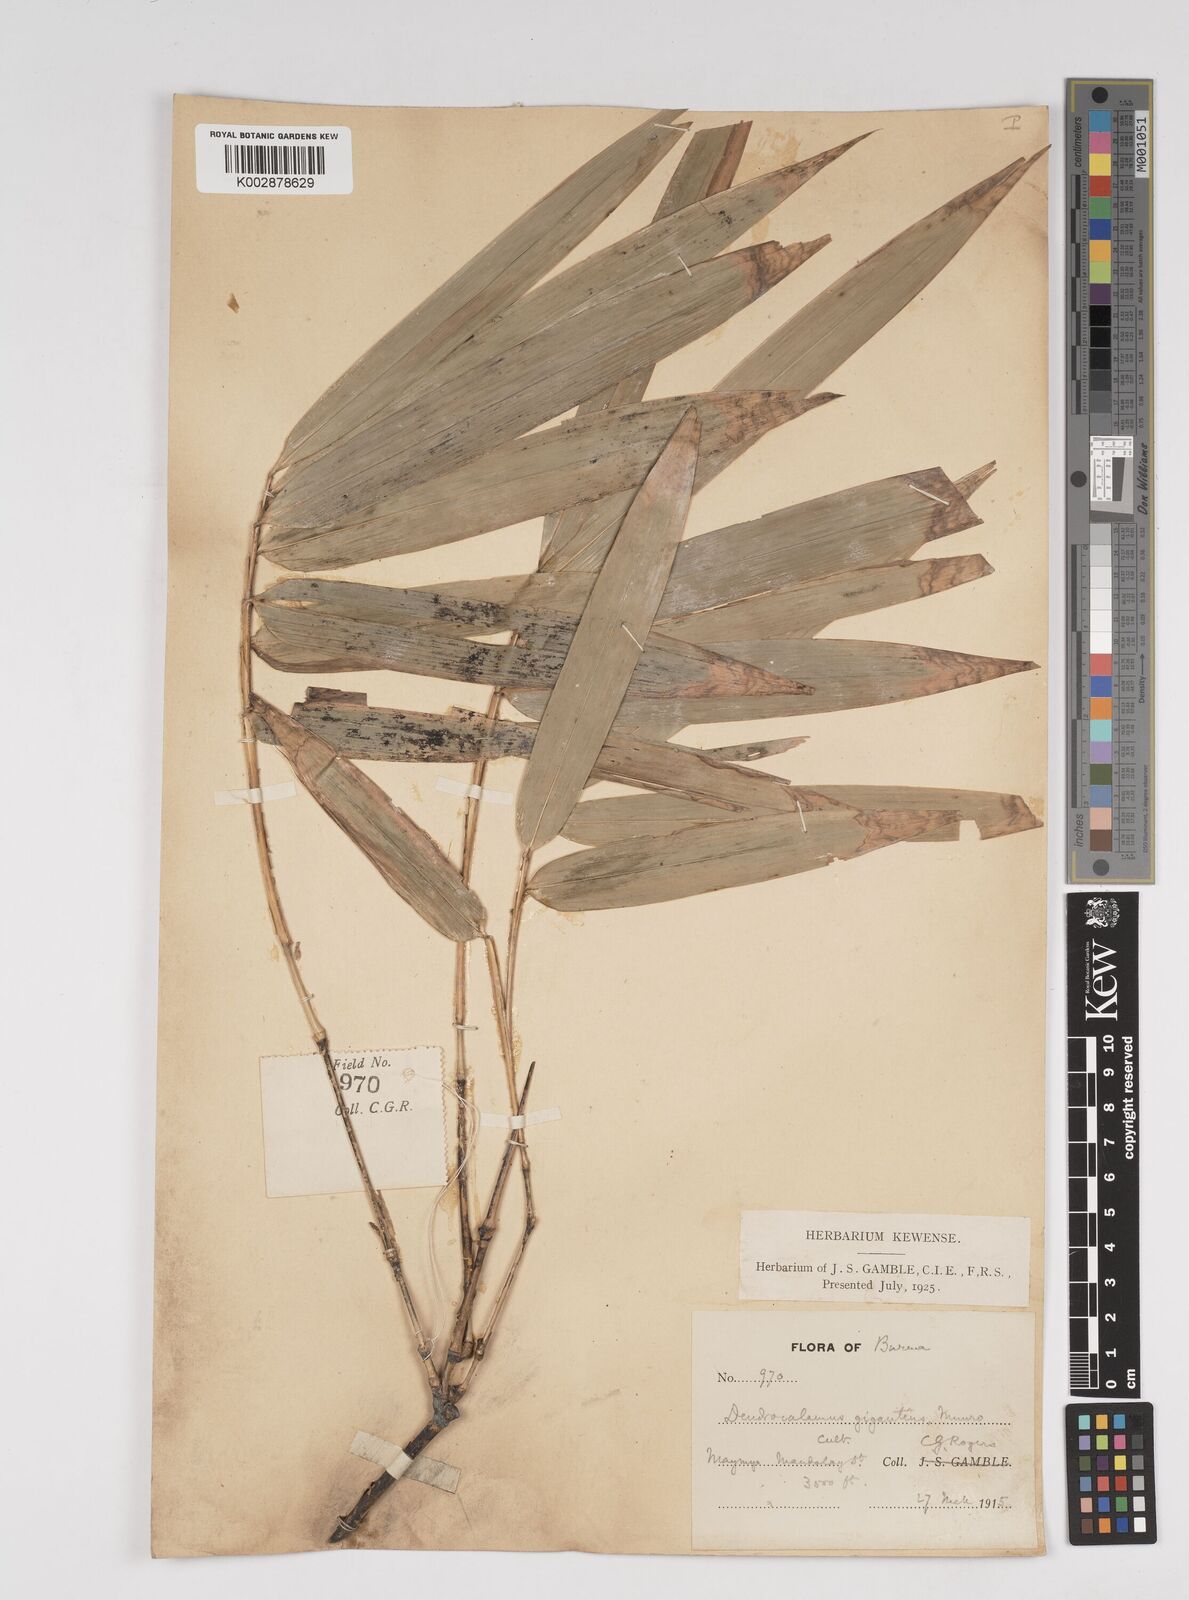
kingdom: Plantae
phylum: Tracheophyta
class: Liliopsida
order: Poales
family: Poaceae
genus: Dendrocalamus
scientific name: Dendrocalamus giganteus
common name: Giant bamboo
